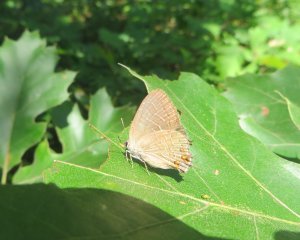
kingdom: Animalia
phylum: Arthropoda
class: Insecta
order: Lepidoptera
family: Lycaenidae
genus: Satyrium
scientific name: Satyrium liparops
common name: Striped Hairstreak
